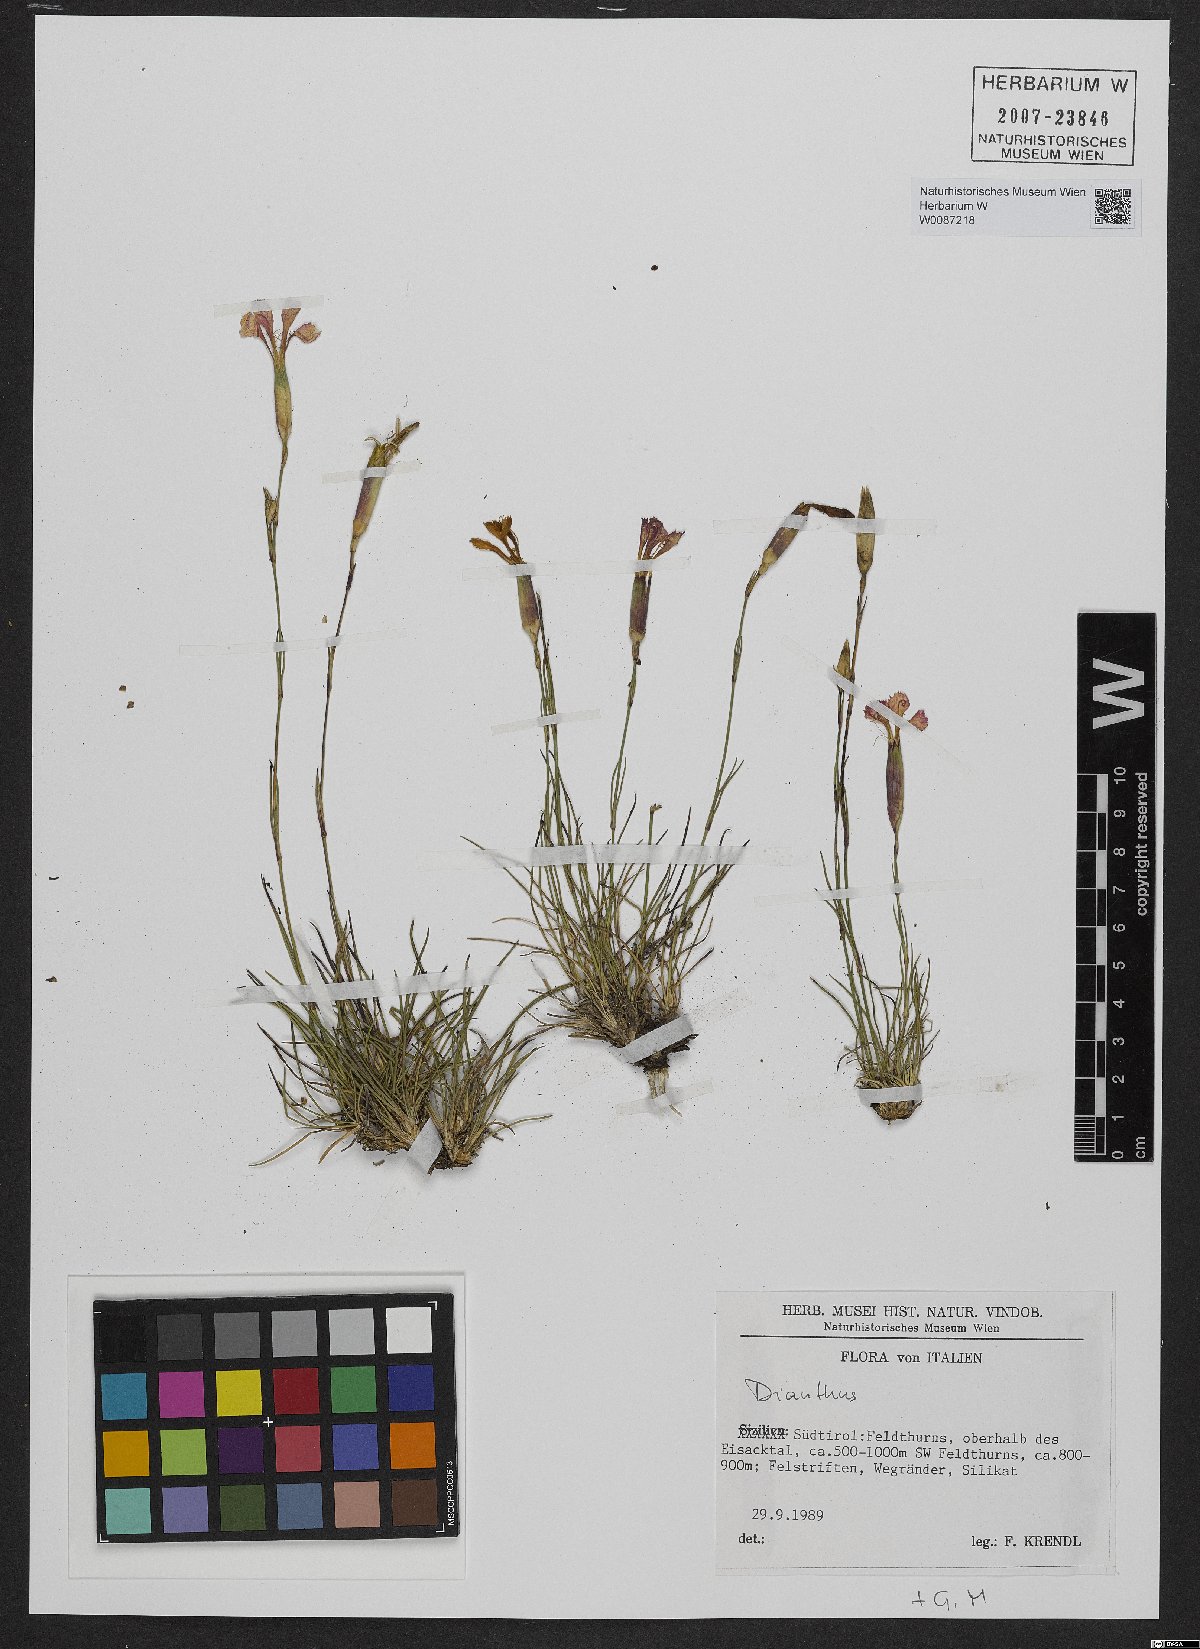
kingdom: Plantae
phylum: Tracheophyta
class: Magnoliopsida
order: Caryophyllales
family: Caryophyllaceae
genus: Dianthus
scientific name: Dianthus
